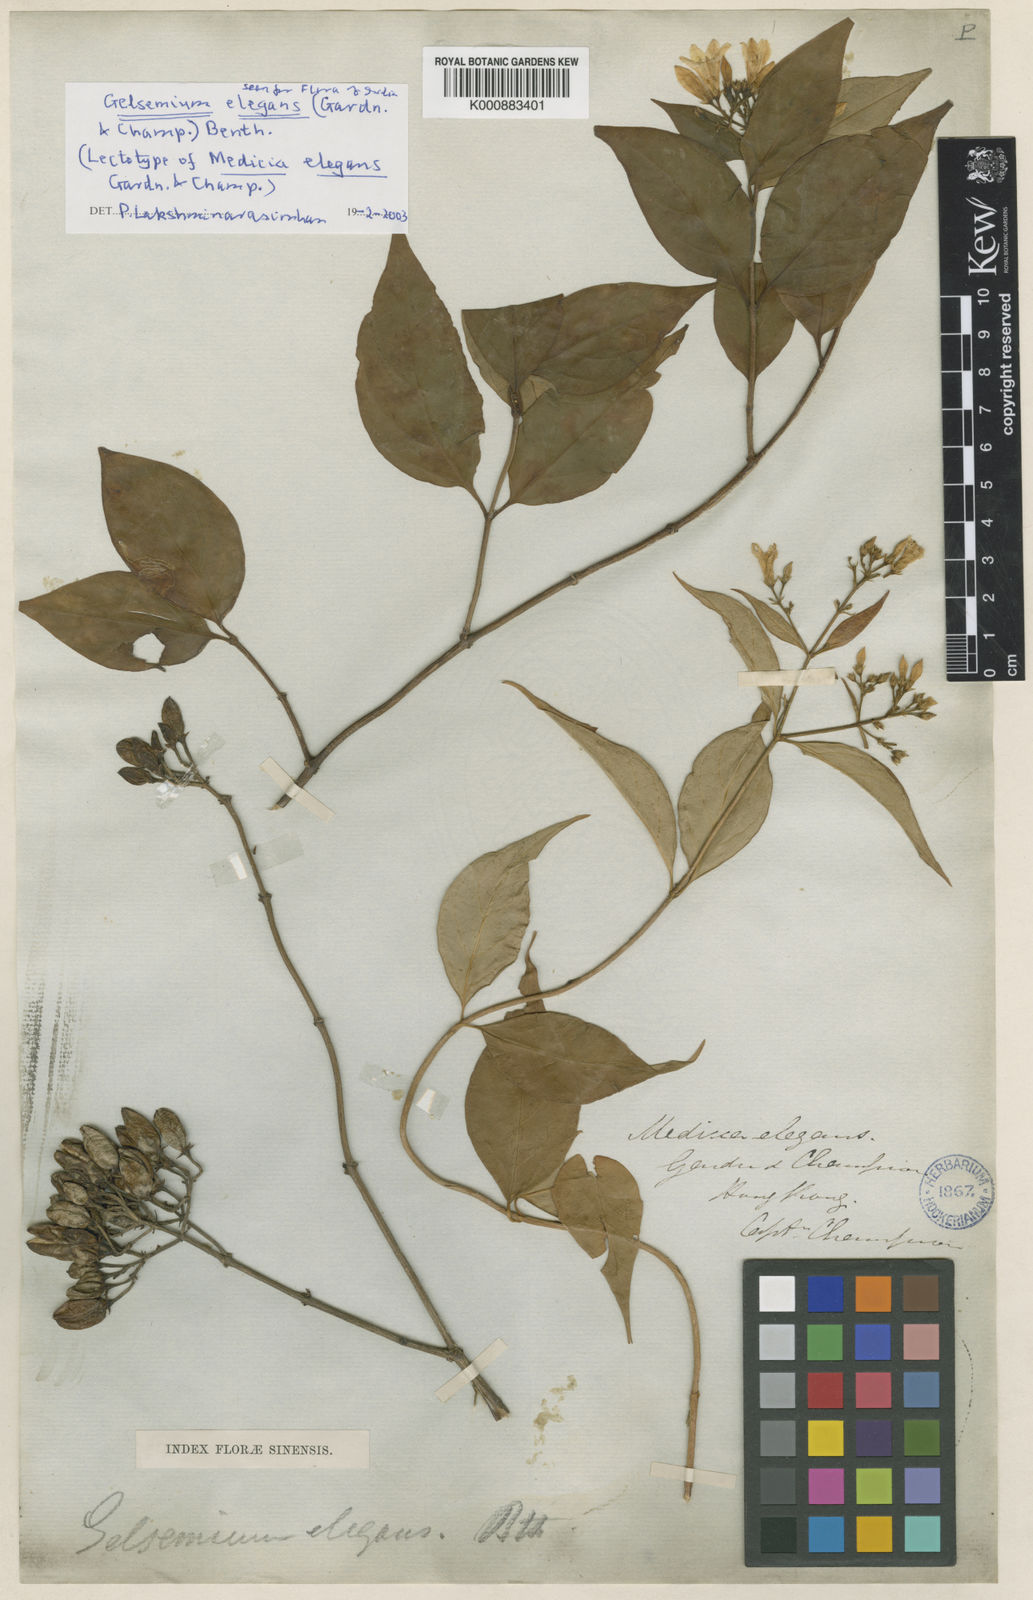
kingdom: Plantae
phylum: Tracheophyta
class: Magnoliopsida
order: Gentianales
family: Gelsemiaceae
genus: Gelsemium
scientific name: Gelsemium elegans
